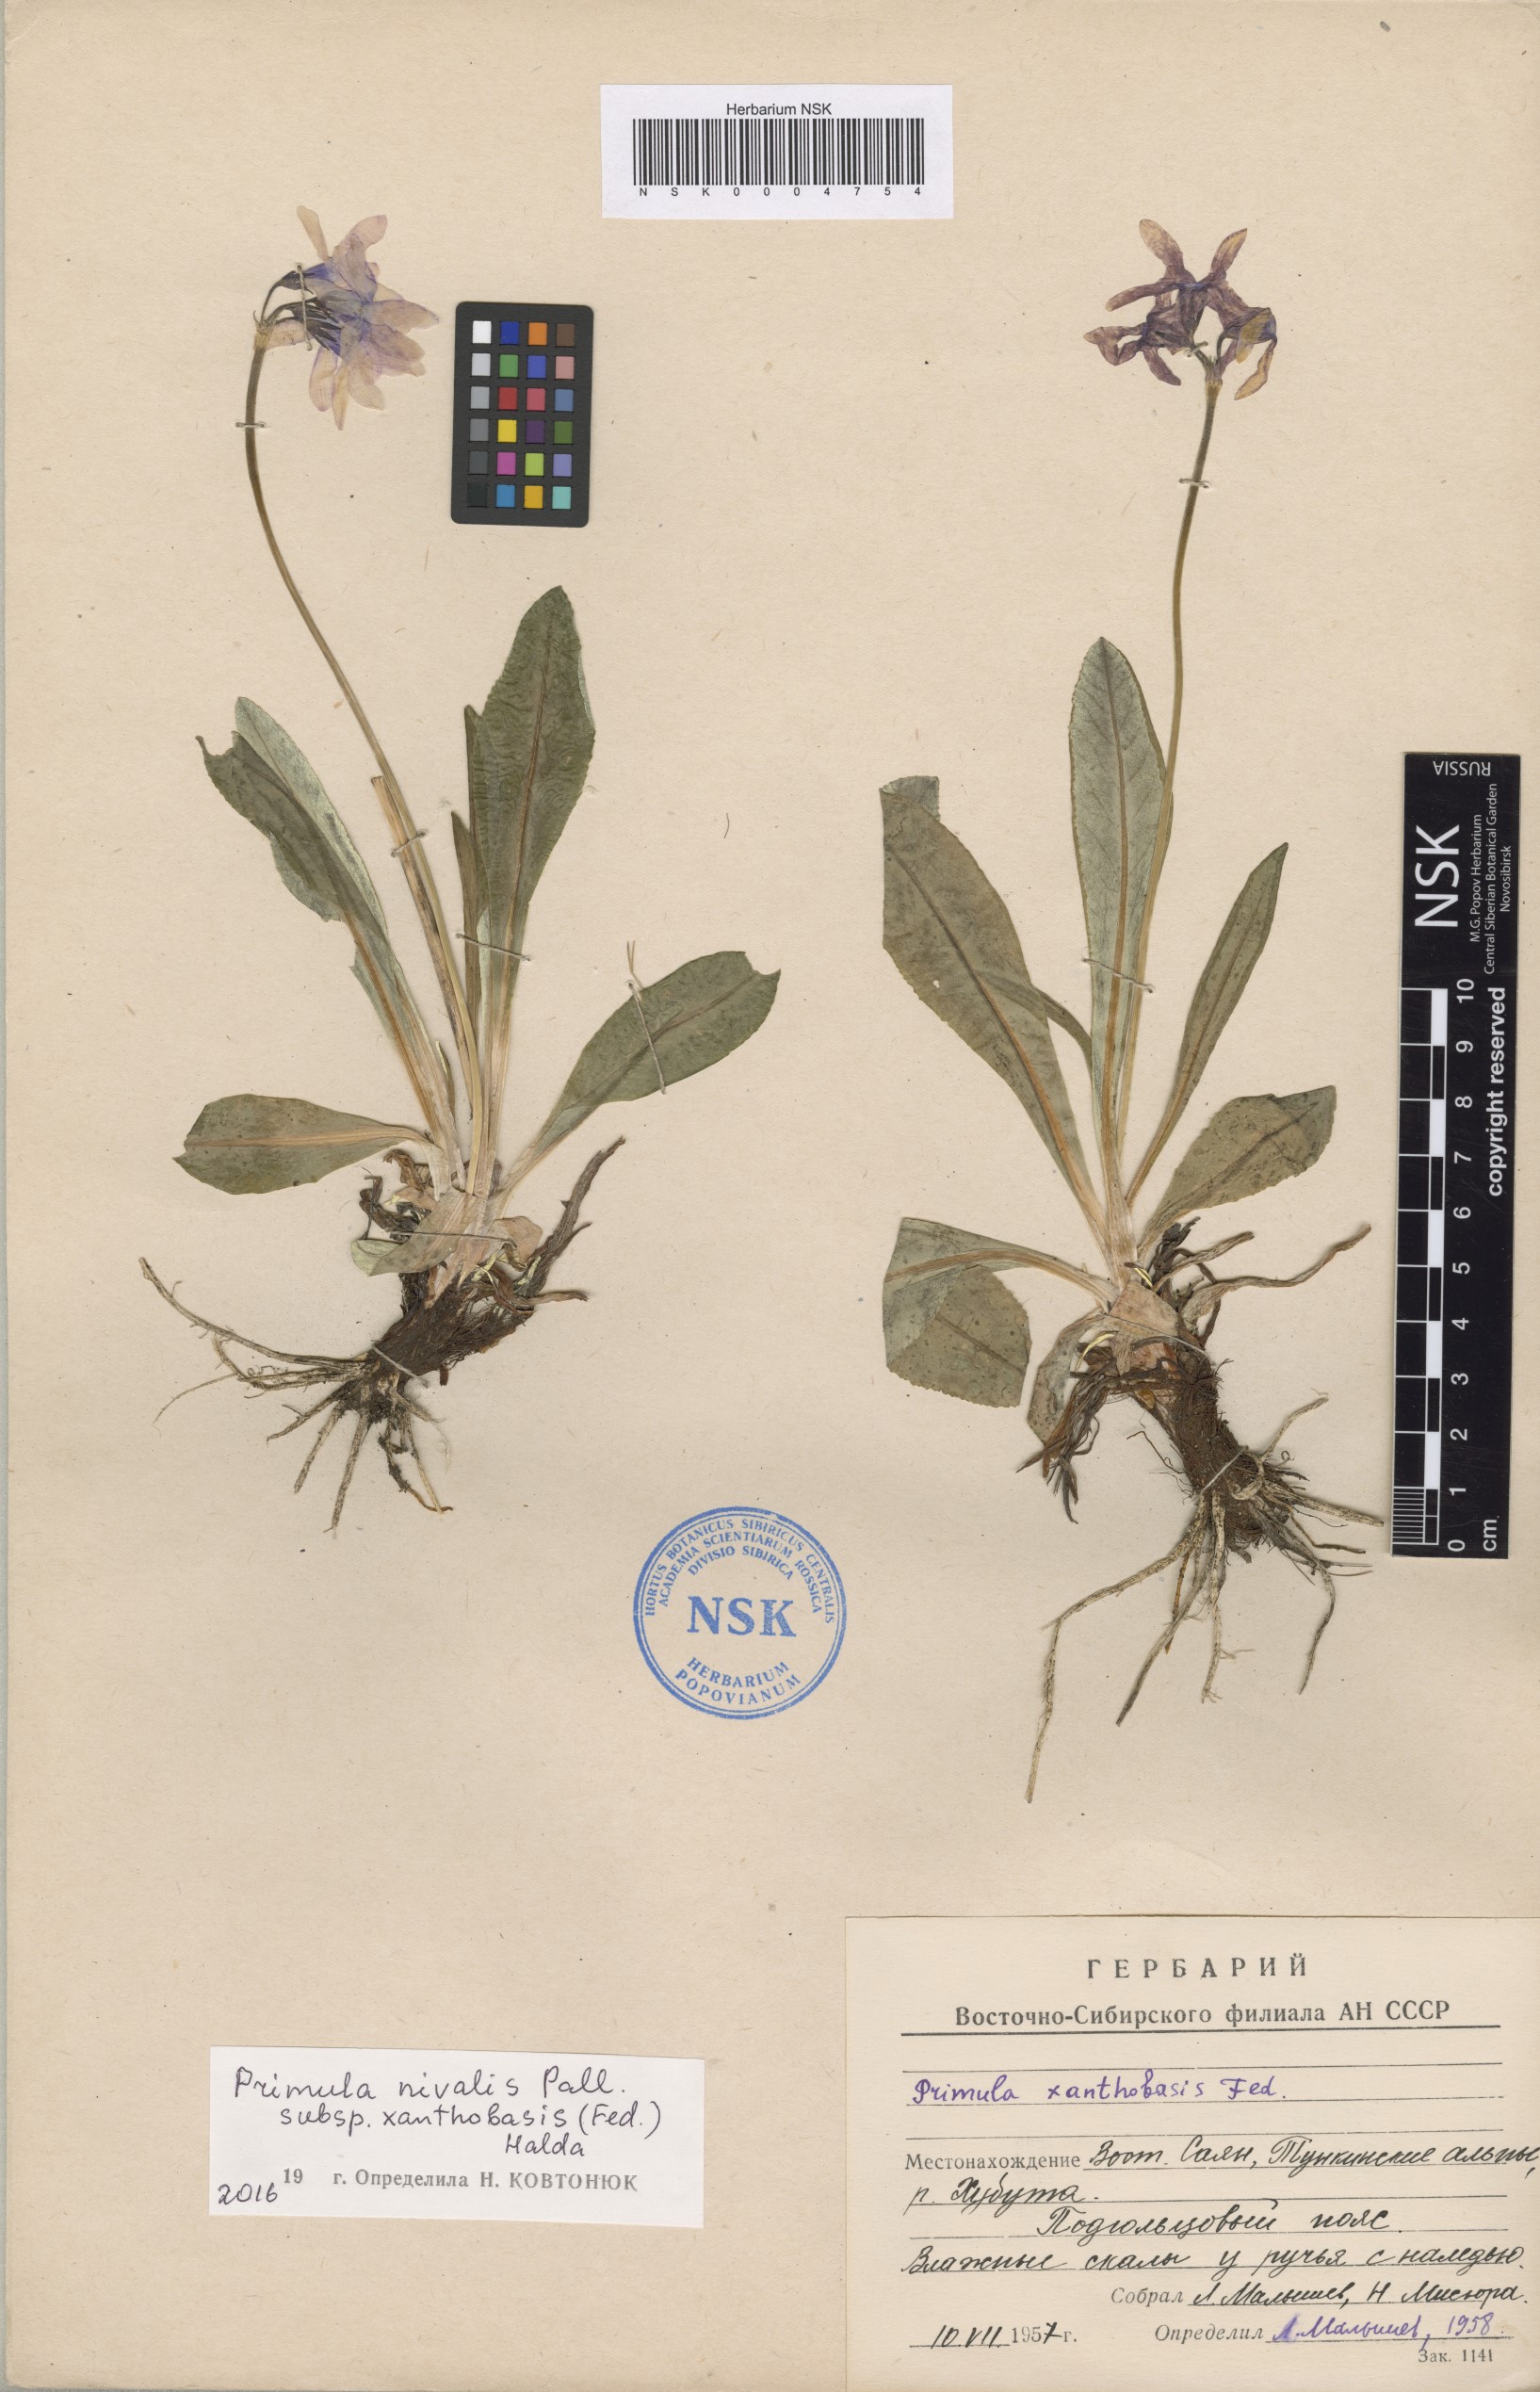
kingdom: Plantae
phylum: Tracheophyta
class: Magnoliopsida
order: Ericales
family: Primulaceae
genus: Primula
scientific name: Primula nivalis
